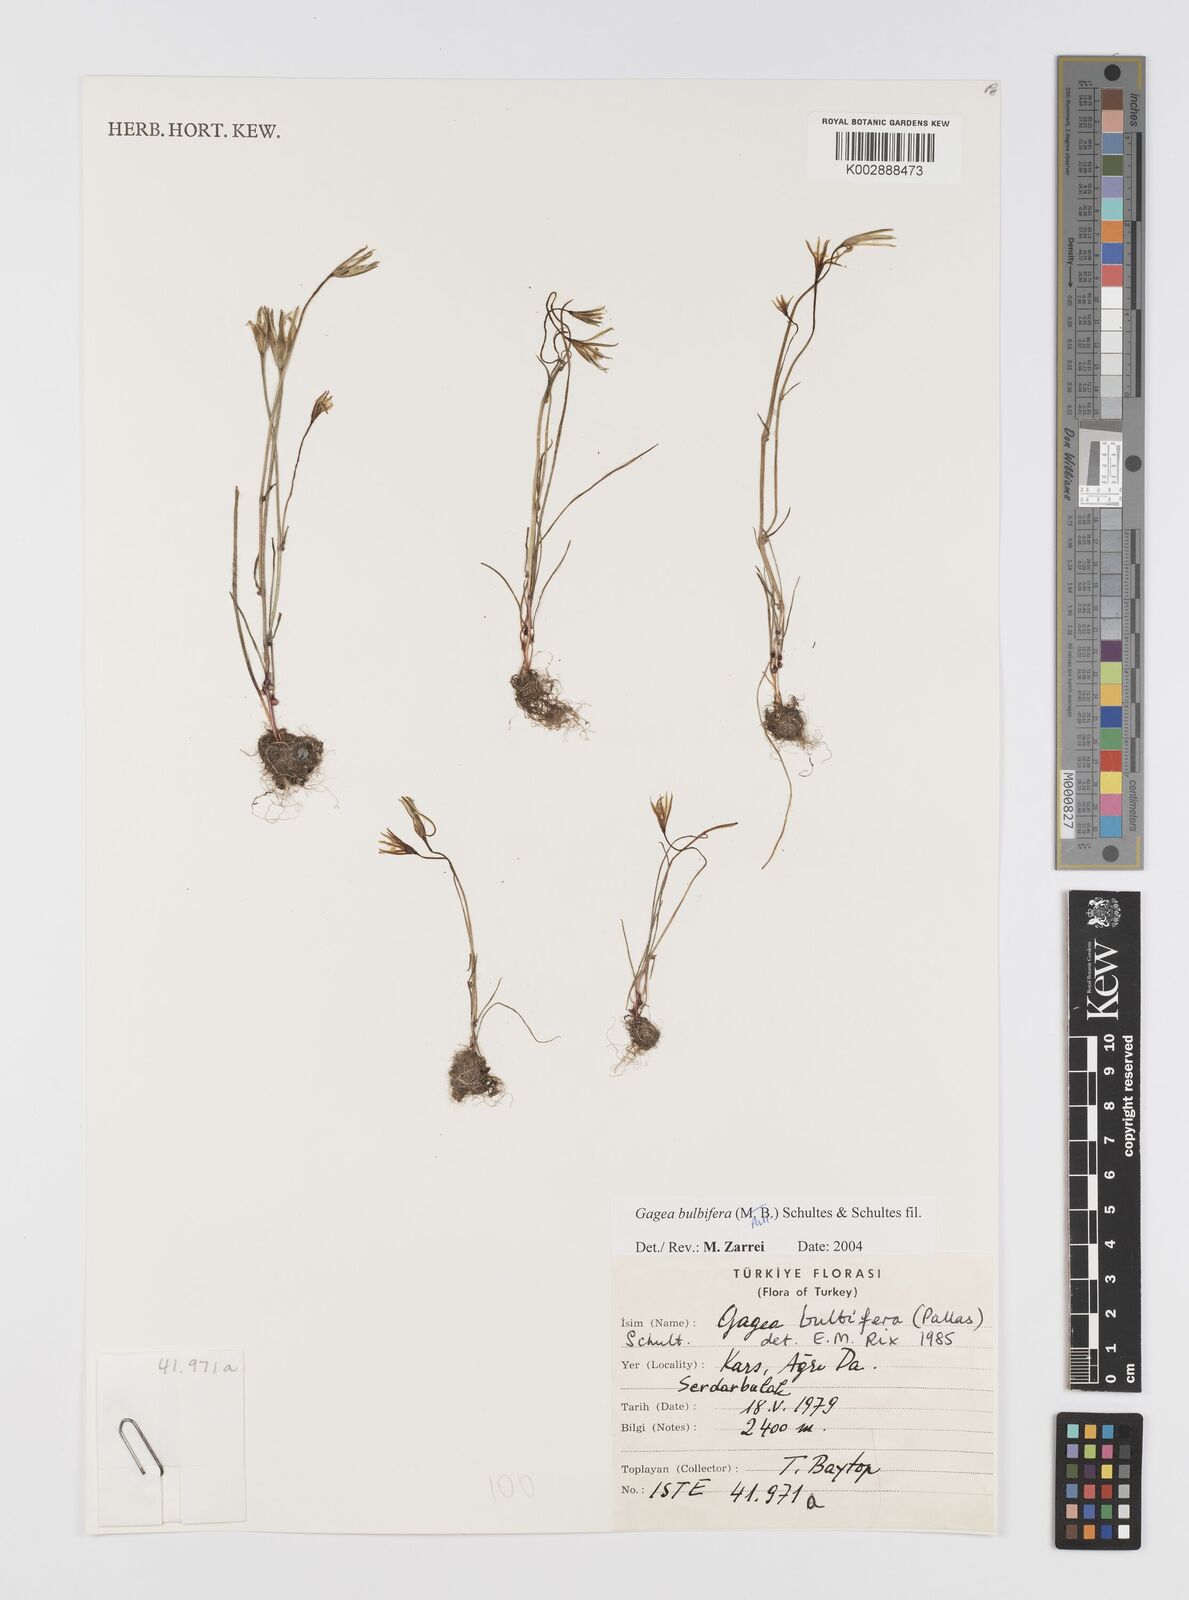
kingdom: Plantae
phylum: Tracheophyta
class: Liliopsida
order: Liliales
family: Liliaceae
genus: Gagea
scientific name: Gagea bulbifera
